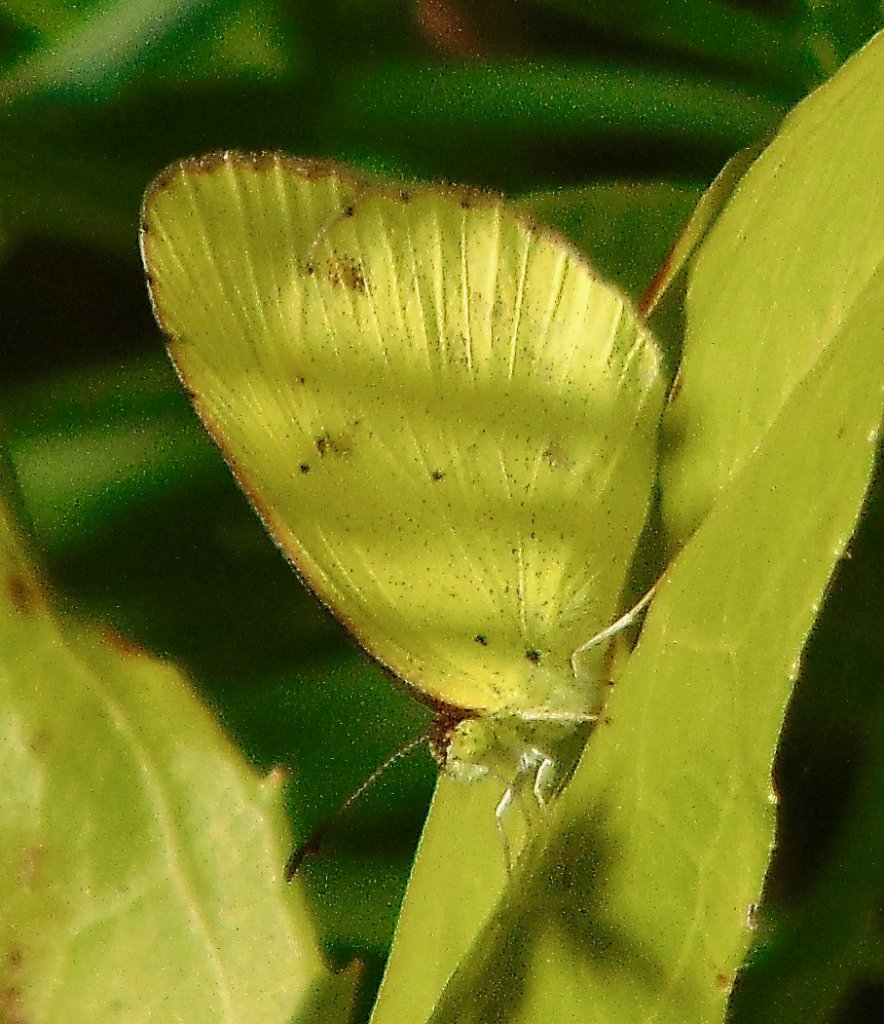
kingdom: Animalia
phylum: Arthropoda
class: Insecta
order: Lepidoptera
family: Pieridae
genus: Pyrisitia
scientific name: Pyrisitia lisa
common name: Little Yellow
